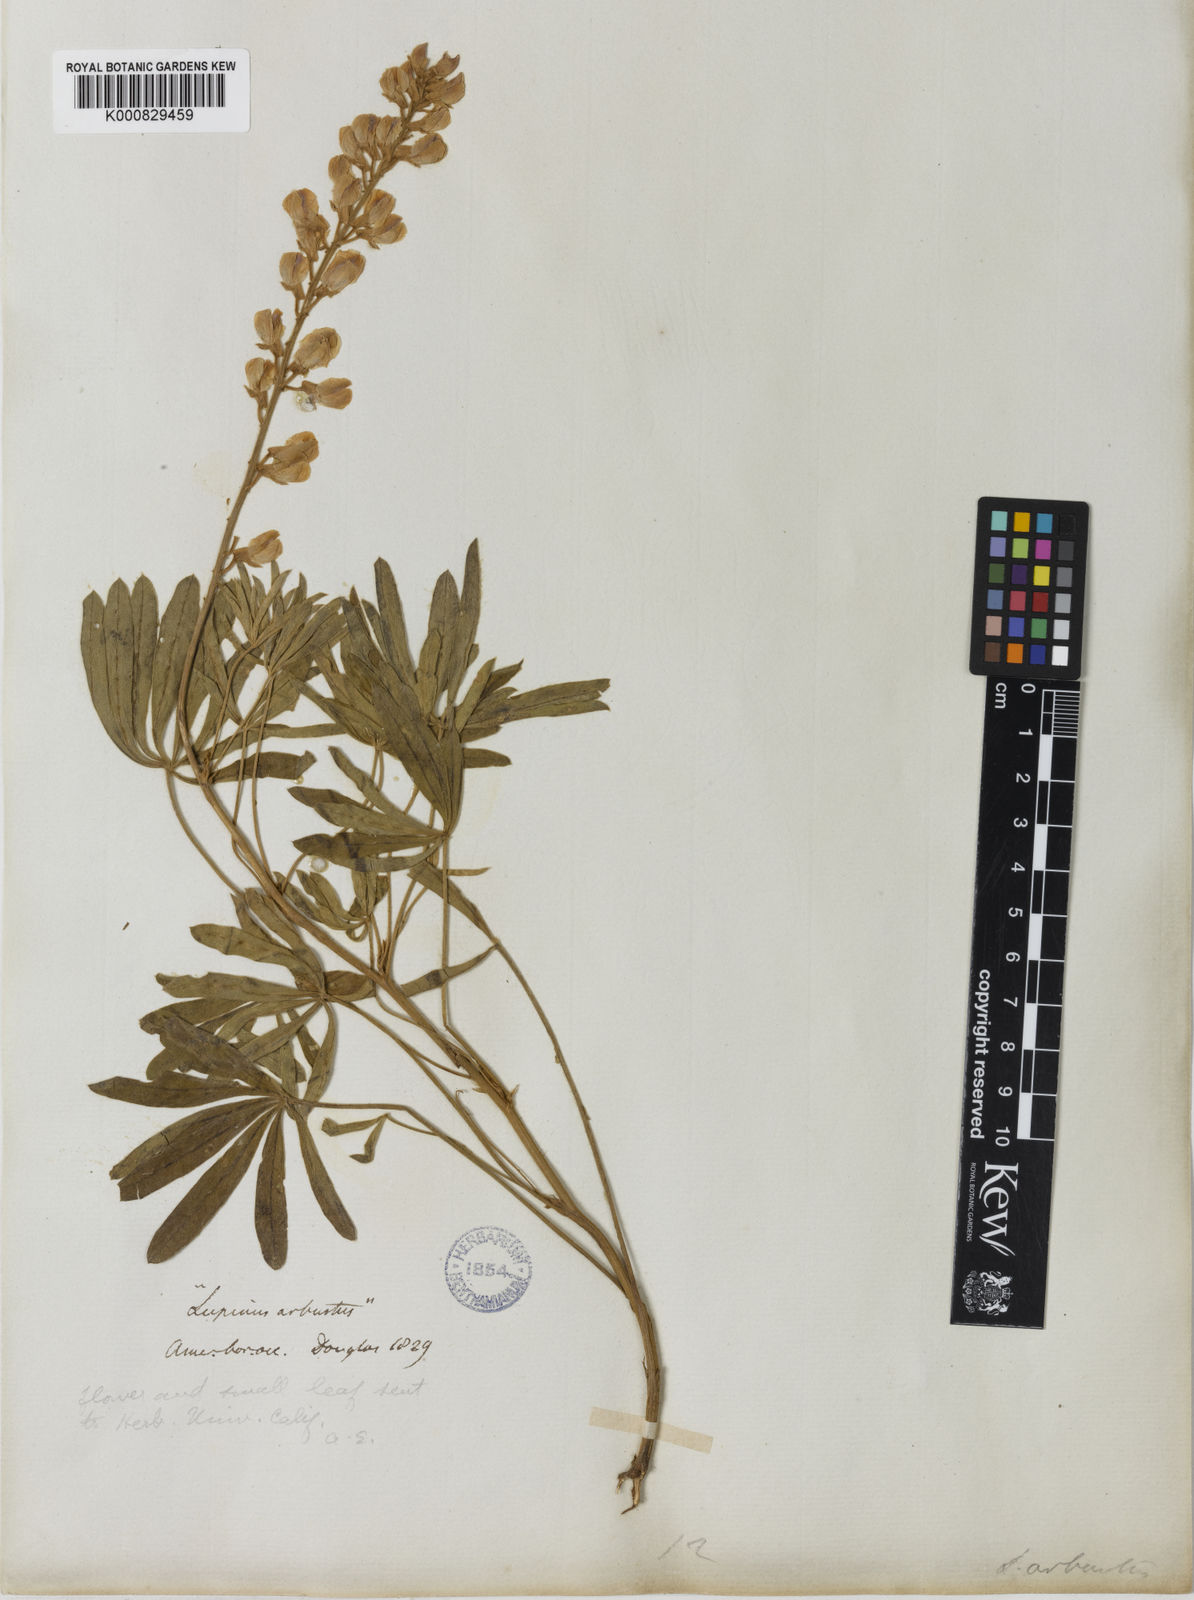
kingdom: Plantae
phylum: Tracheophyta
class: Magnoliopsida
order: Fabales
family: Fabaceae
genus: Lupinus
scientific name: Lupinus arbustus
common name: Montana lupine
